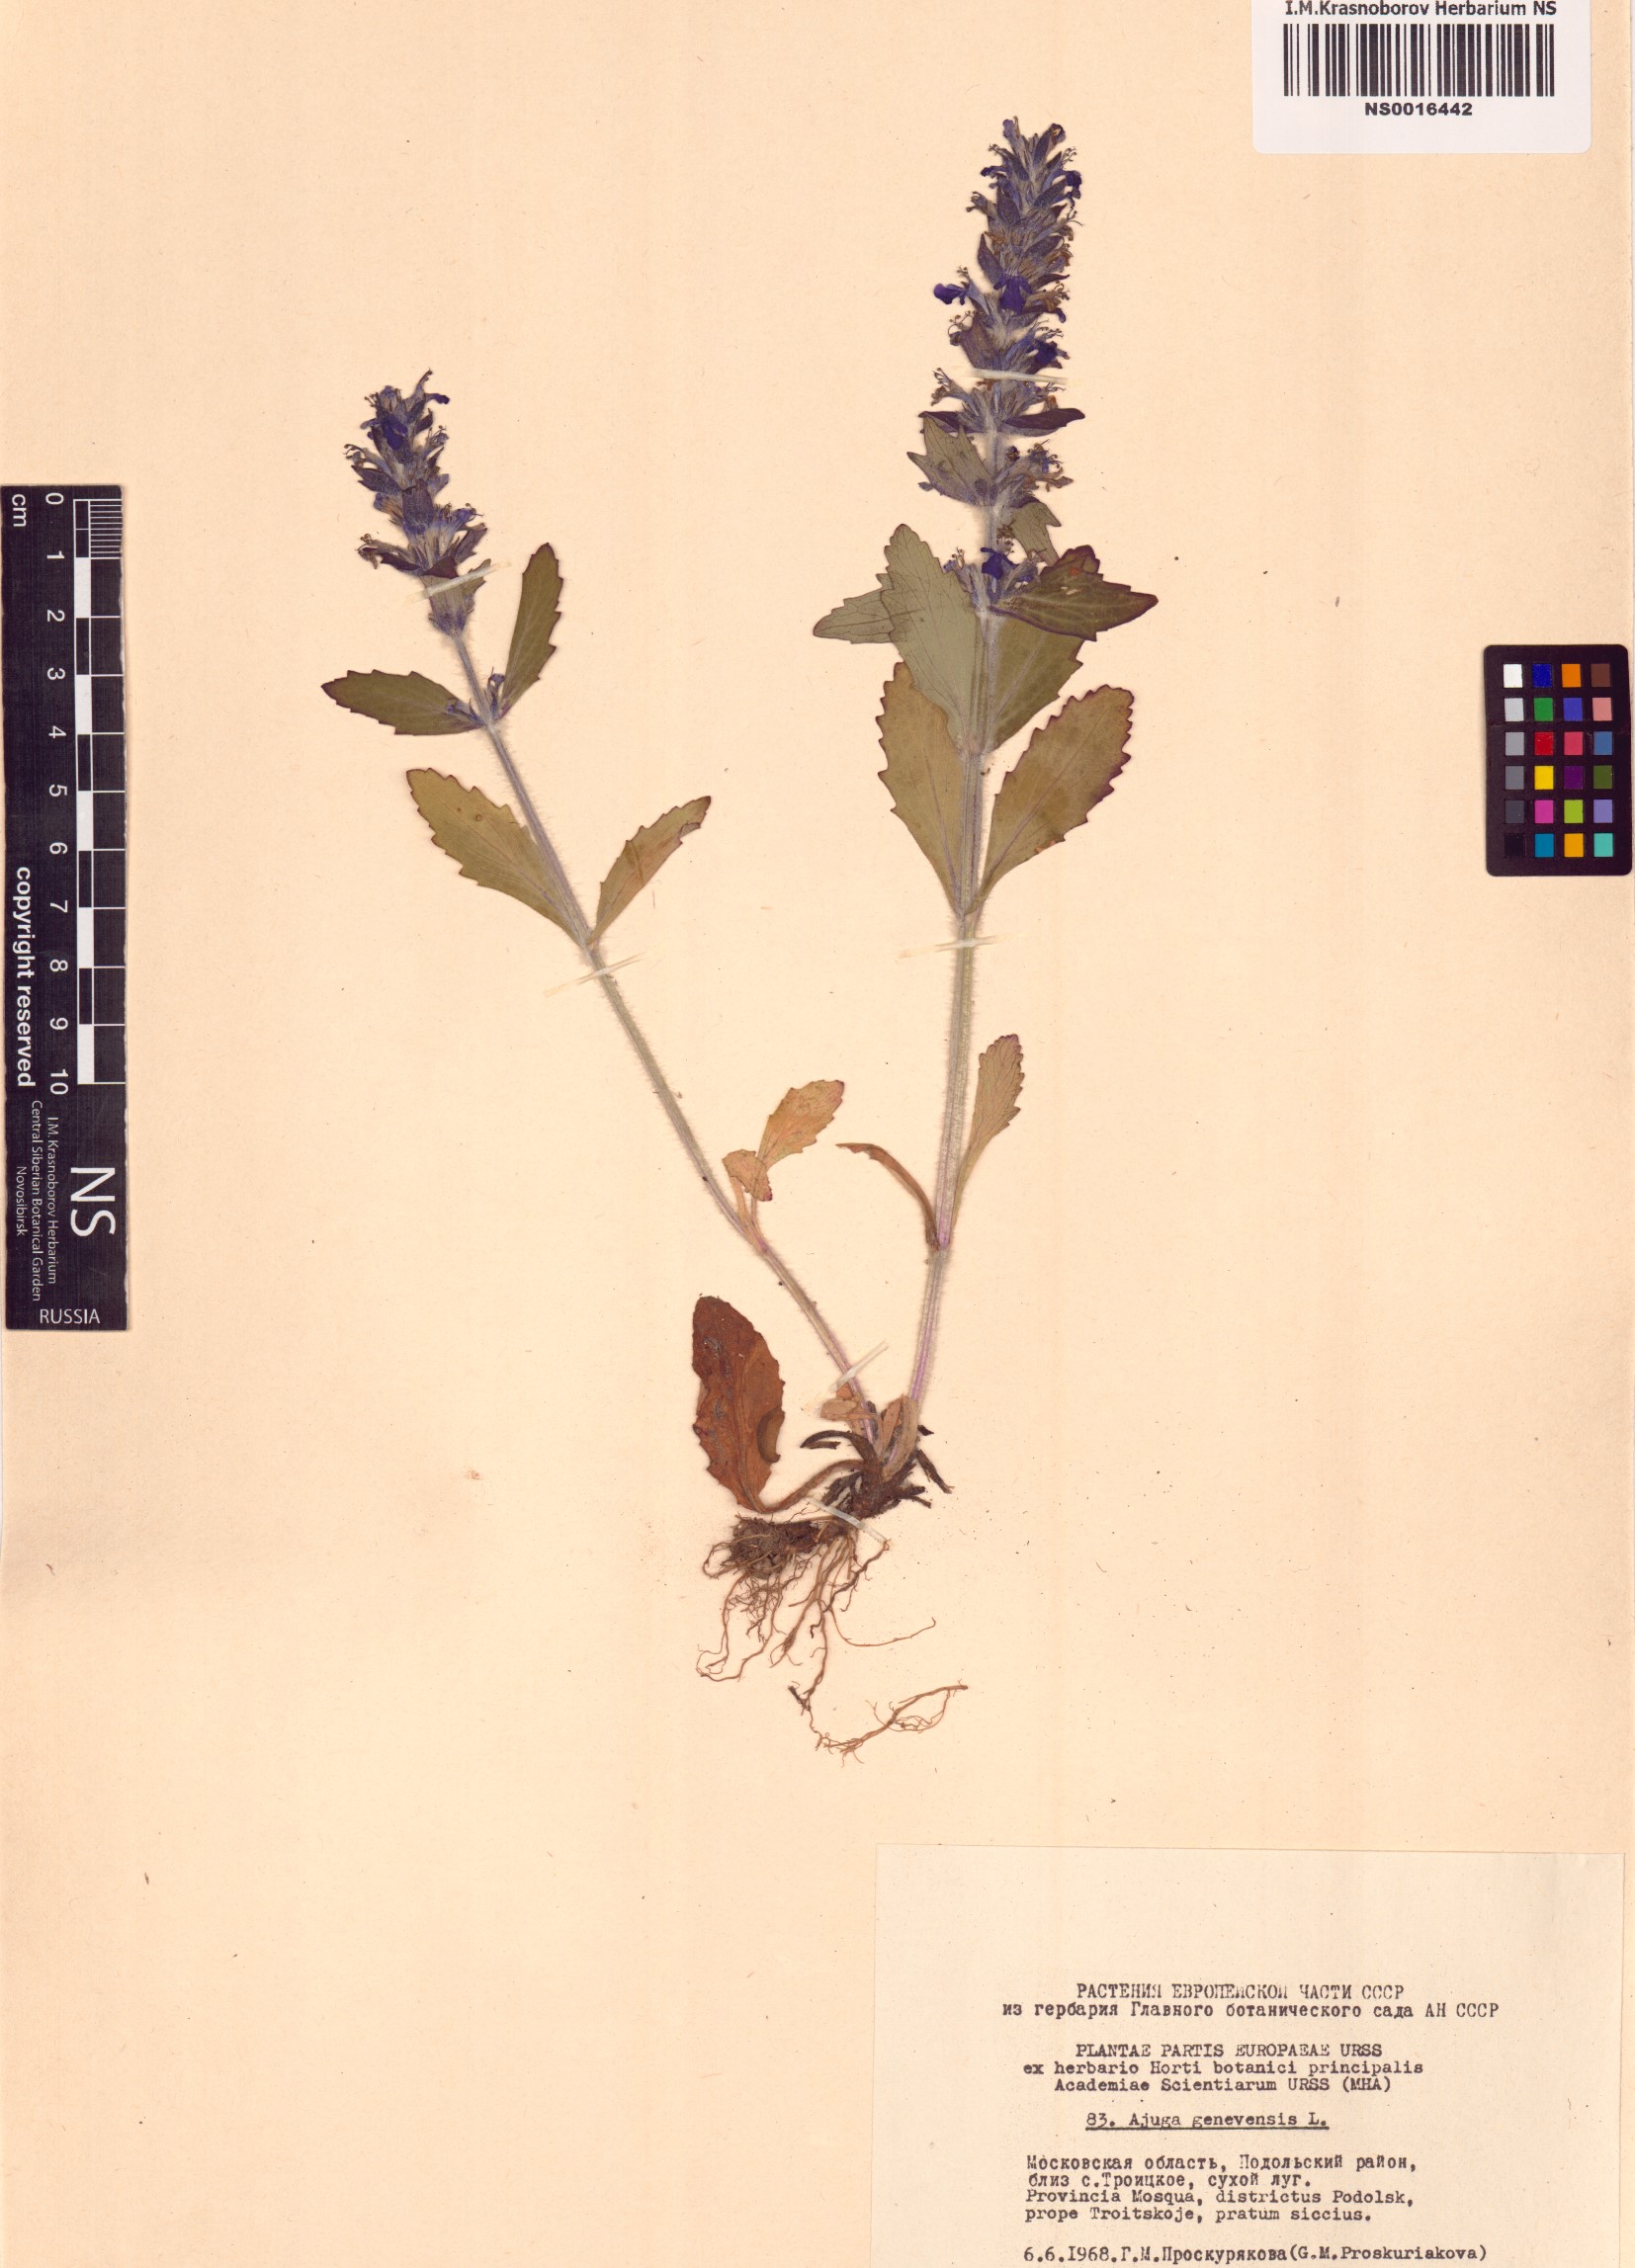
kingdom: Plantae
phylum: Tracheophyta
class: Magnoliopsida
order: Lamiales
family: Lamiaceae
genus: Ajuga
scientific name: Ajuga genevensis
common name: Blue bugle
